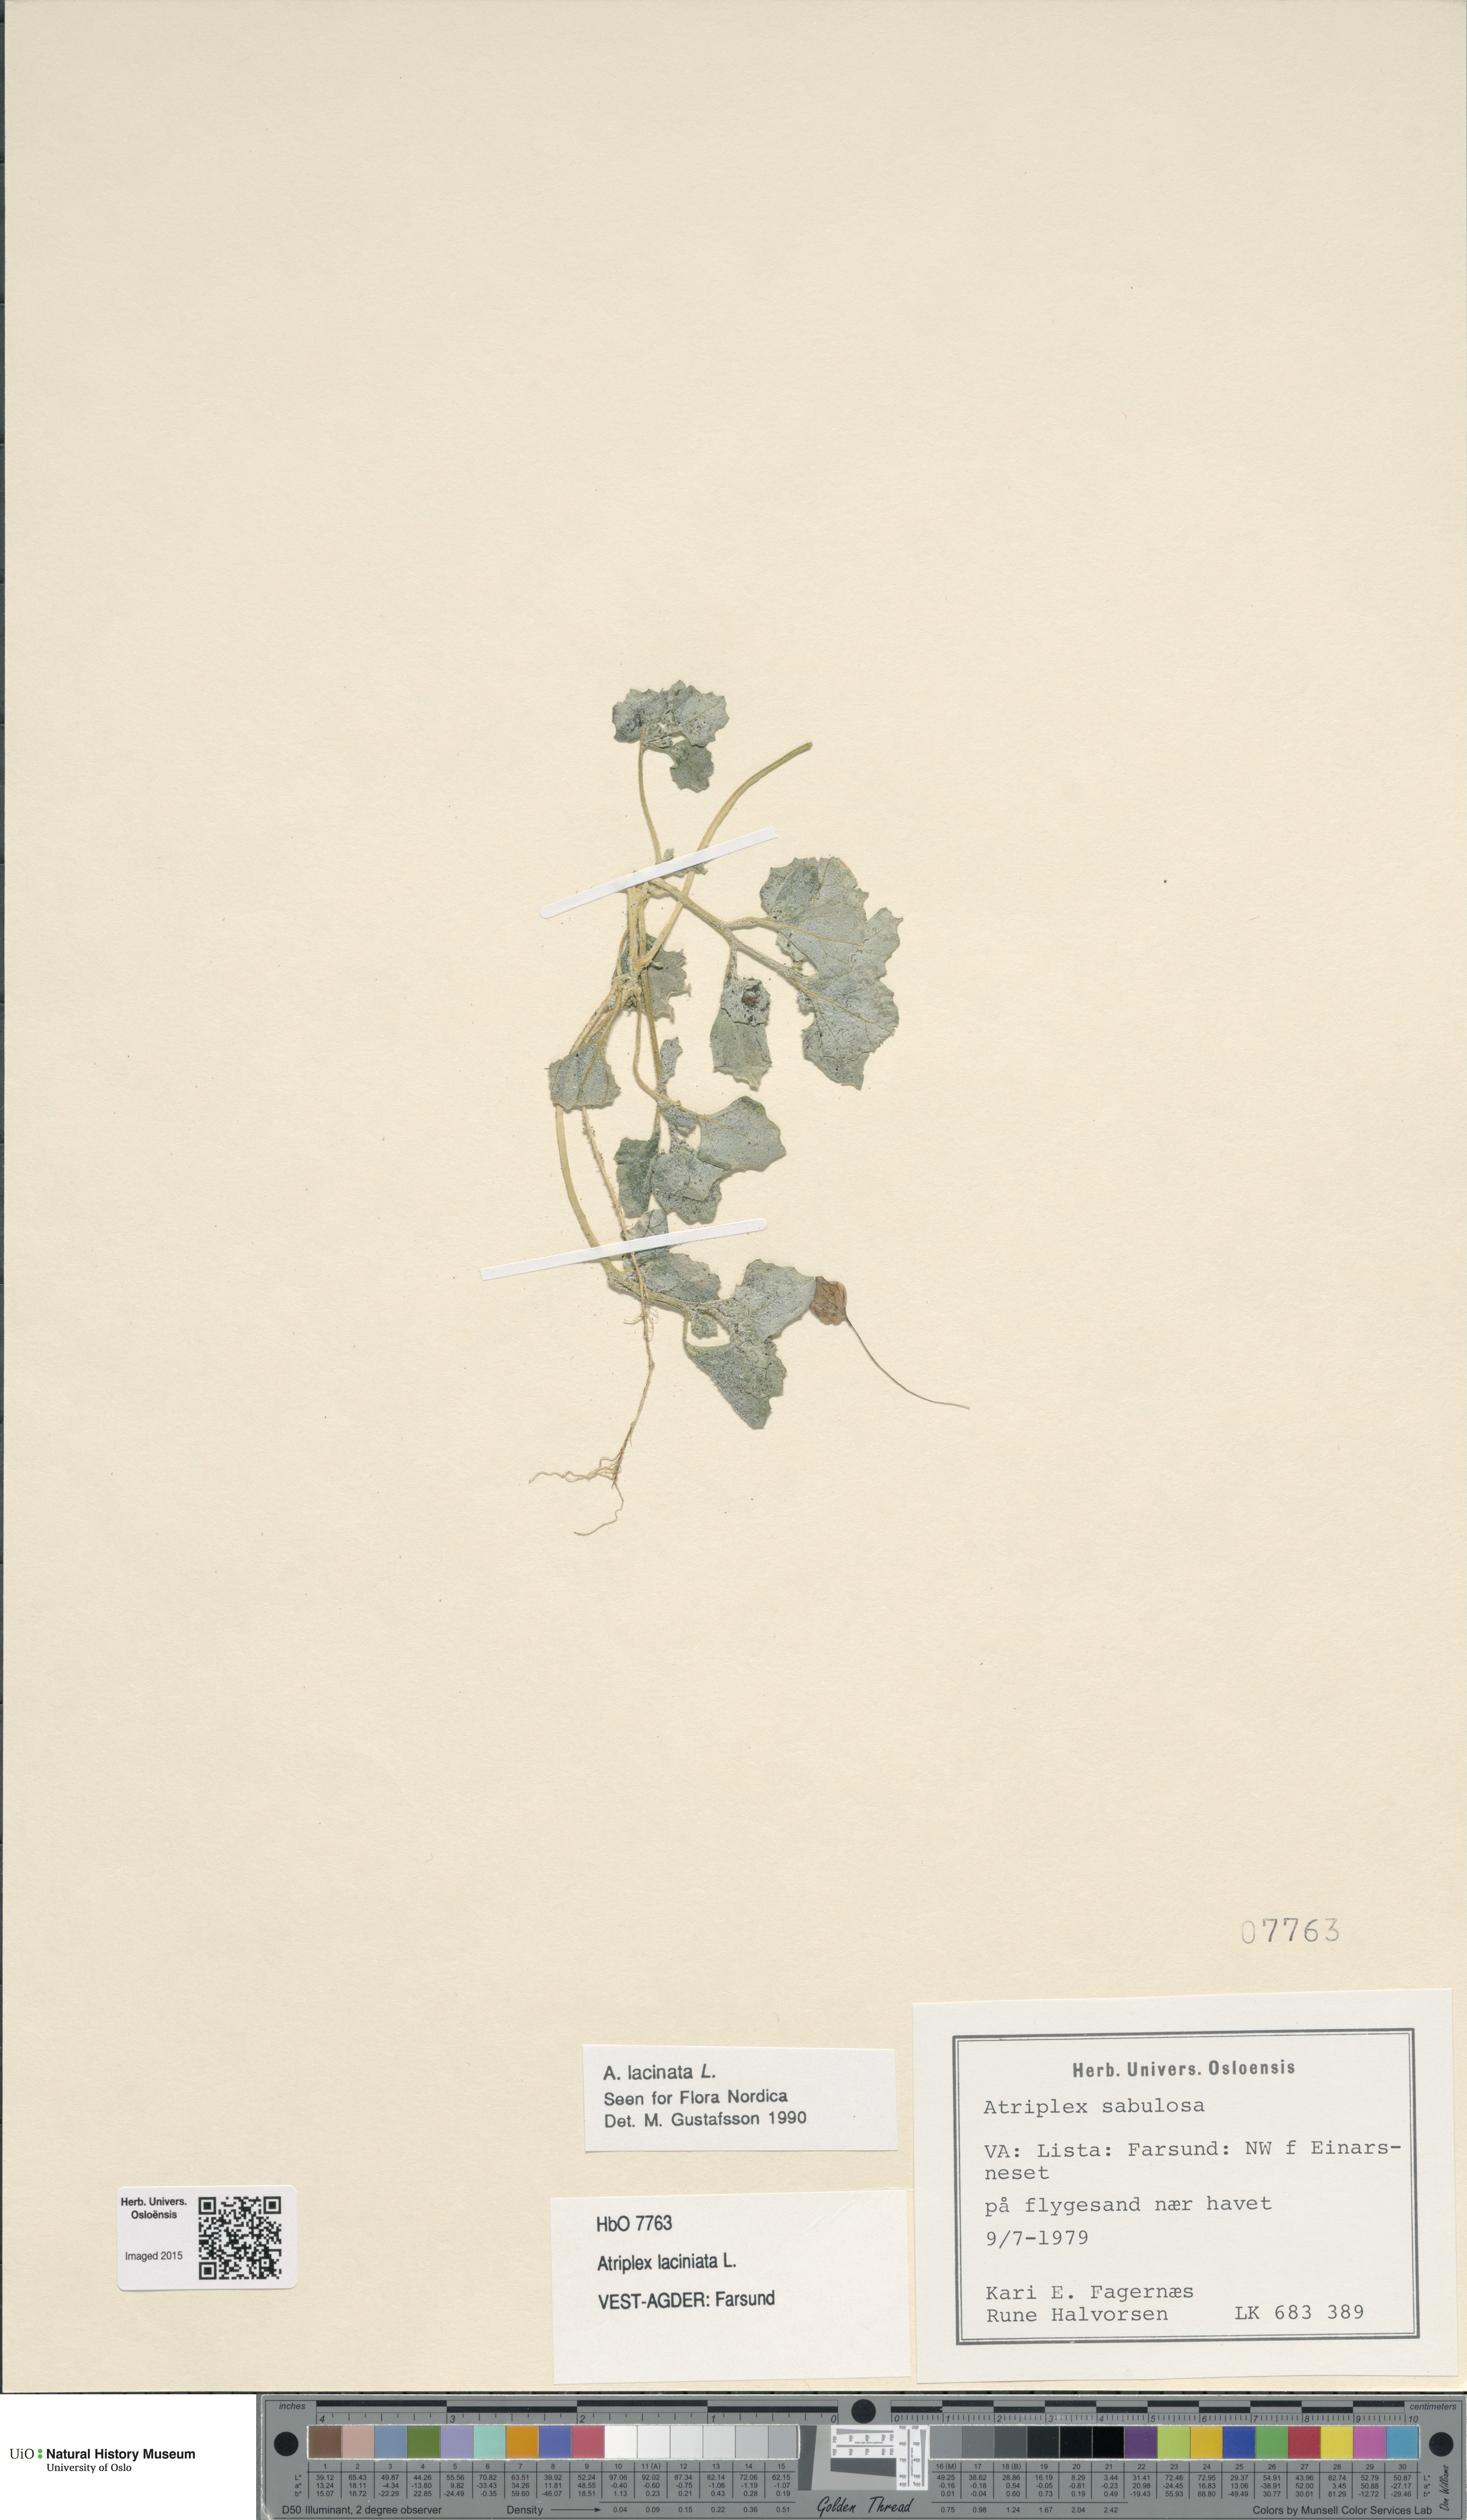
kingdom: Plantae
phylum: Tracheophyta
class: Magnoliopsida
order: Caryophyllales
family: Amaranthaceae
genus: Atriplex
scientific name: Atriplex laciniata
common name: Frosted orache
